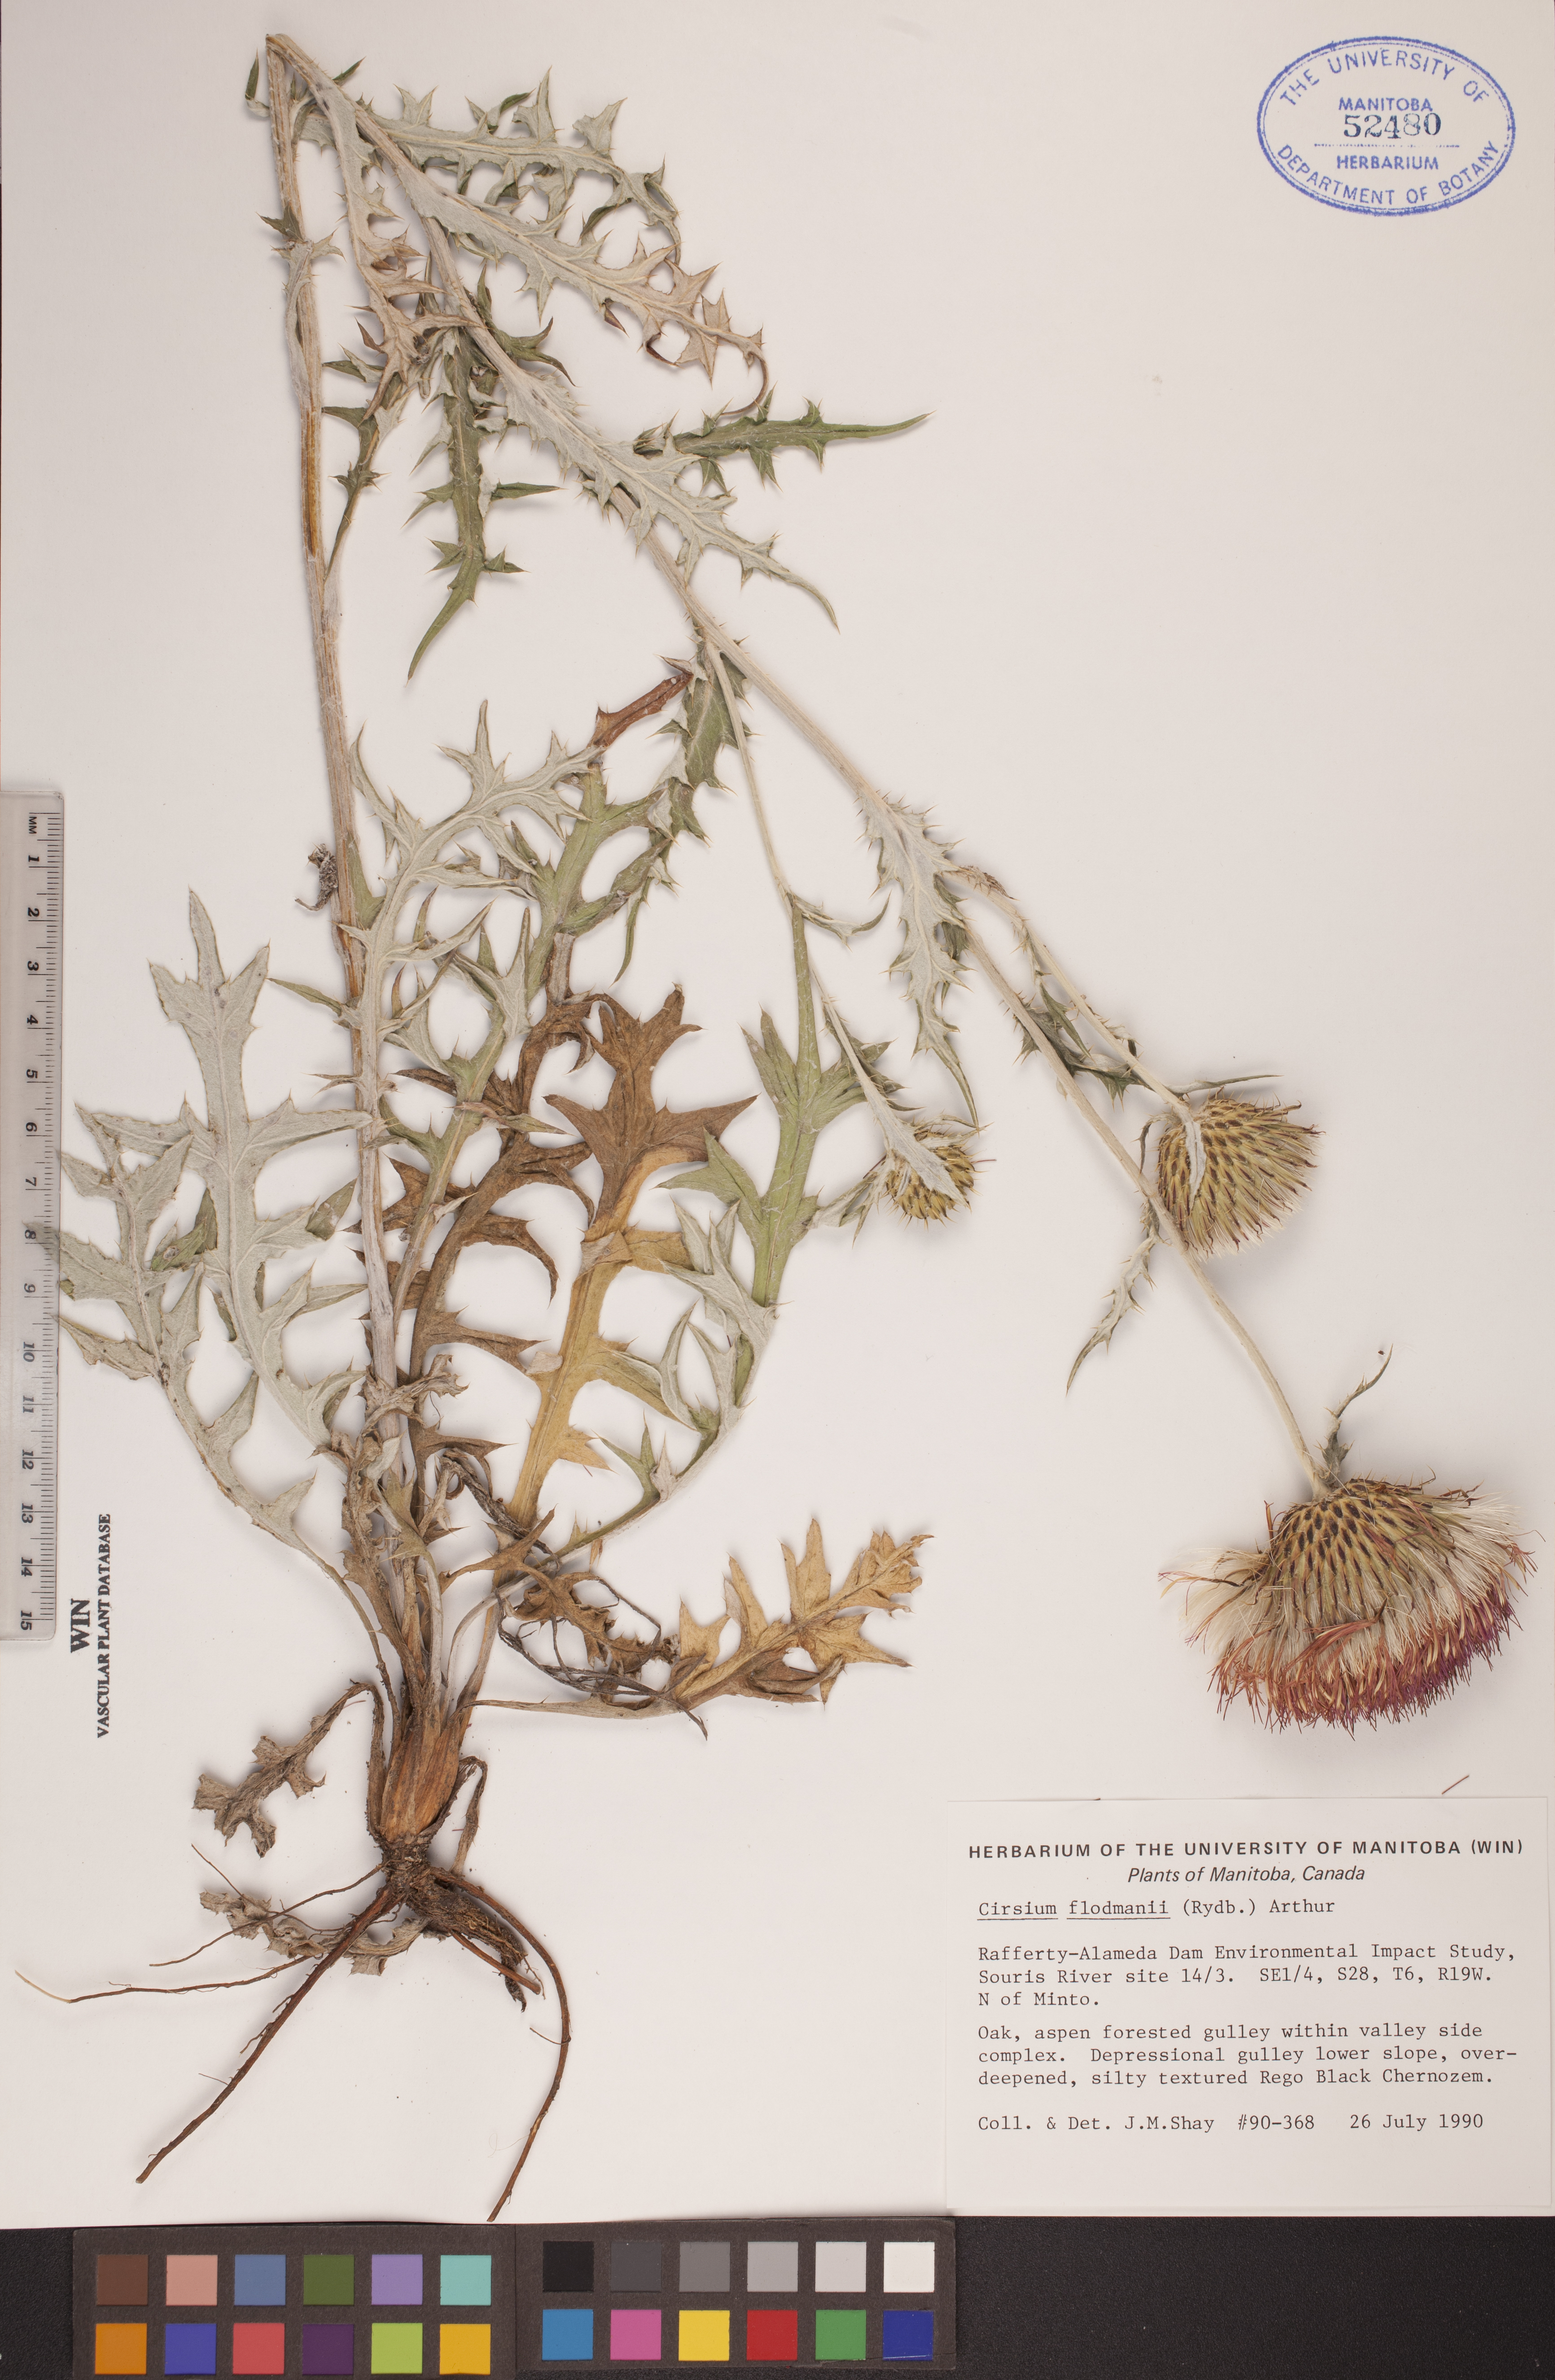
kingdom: Plantae
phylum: Tracheophyta
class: Magnoliopsida
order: Asterales
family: Asteraceae
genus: Cirsium
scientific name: Cirsium flodmanii
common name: Flodman's thistle
